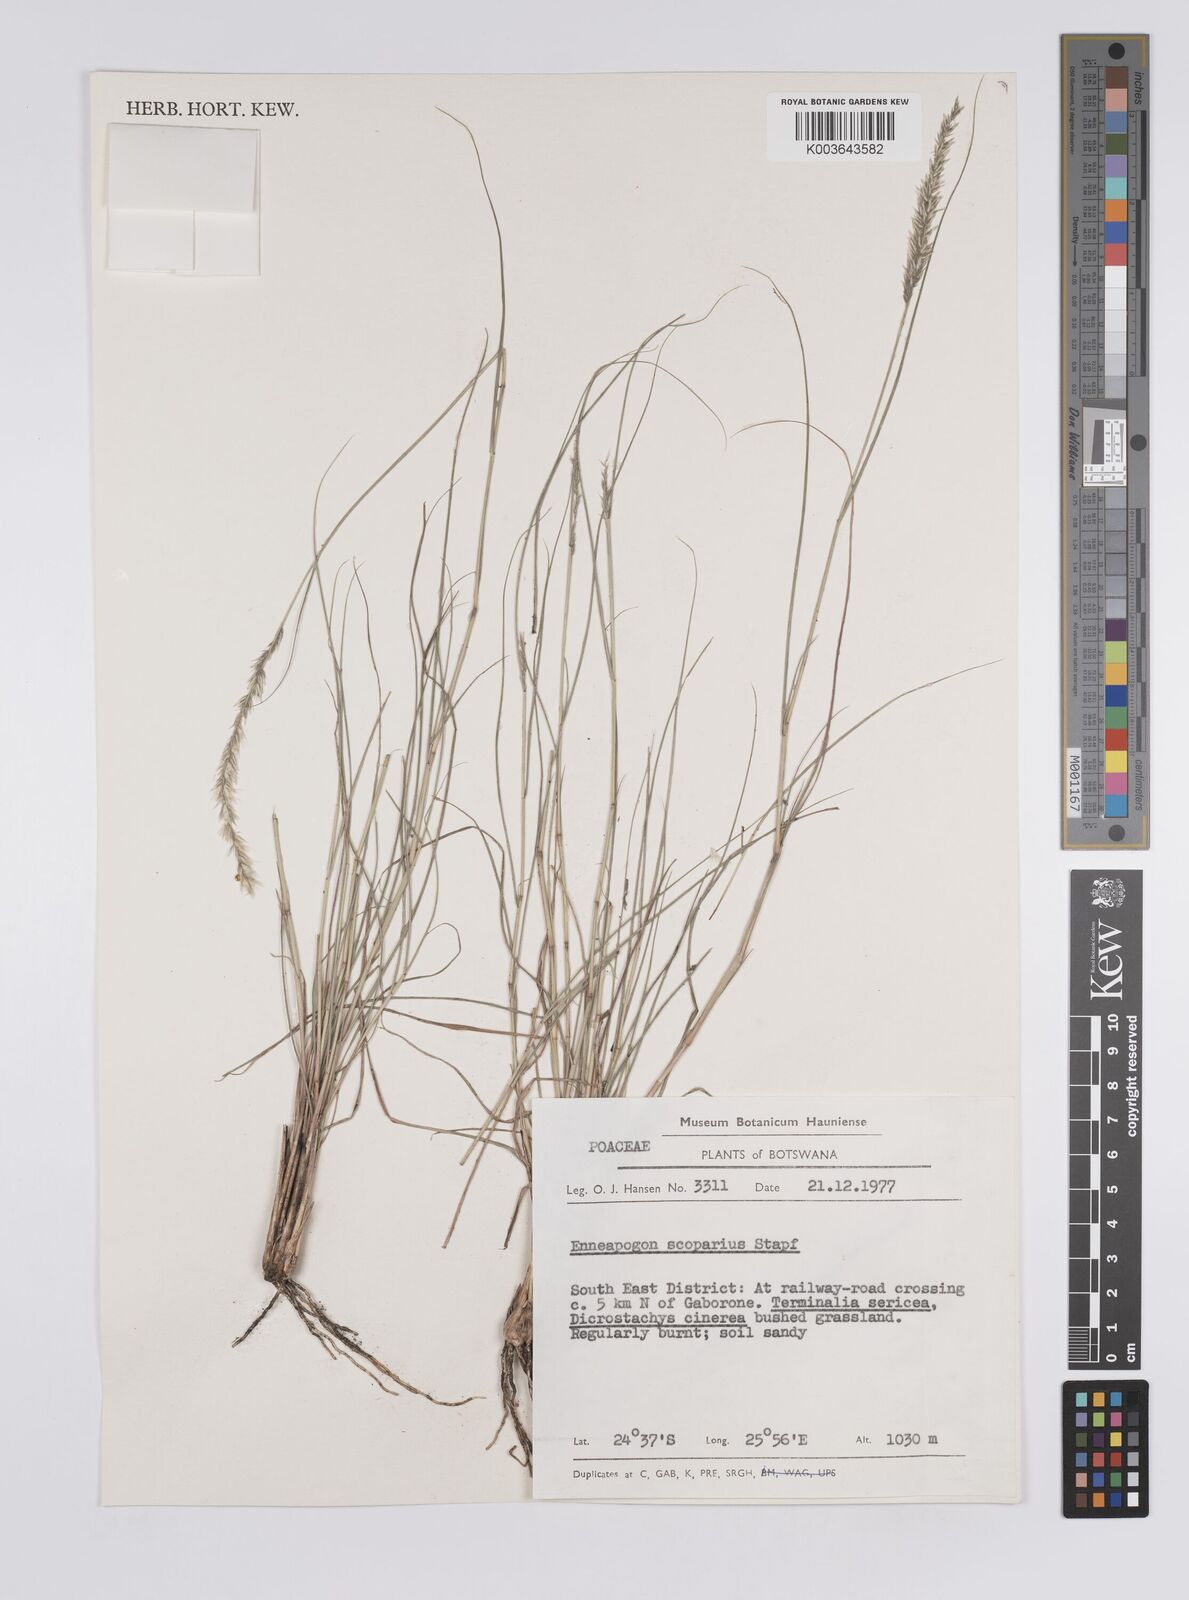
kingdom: Plantae
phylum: Tracheophyta
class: Liliopsida
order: Poales
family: Poaceae
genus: Enneapogon
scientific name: Enneapogon scoparius
